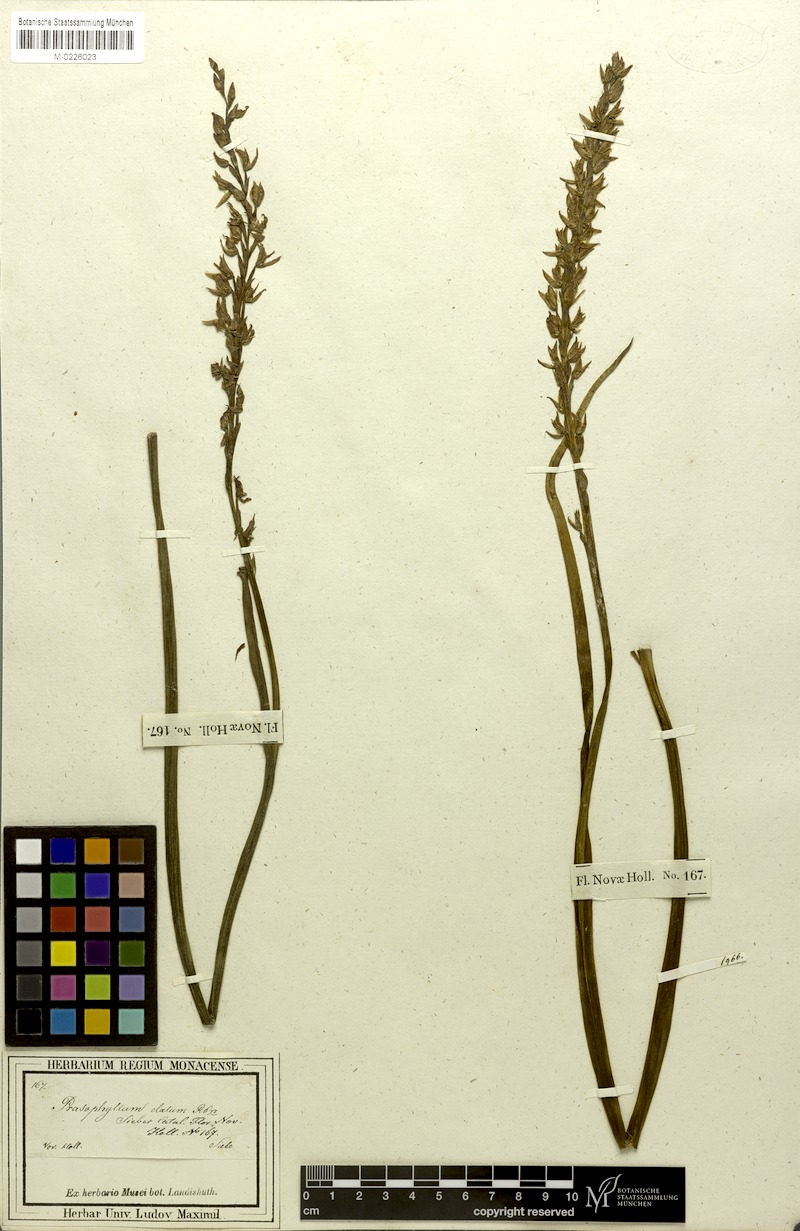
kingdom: Plantae
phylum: Tracheophyta
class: Liliopsida
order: Asparagales
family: Orchidaceae
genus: Prasophyllum
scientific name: Prasophyllum elatum
